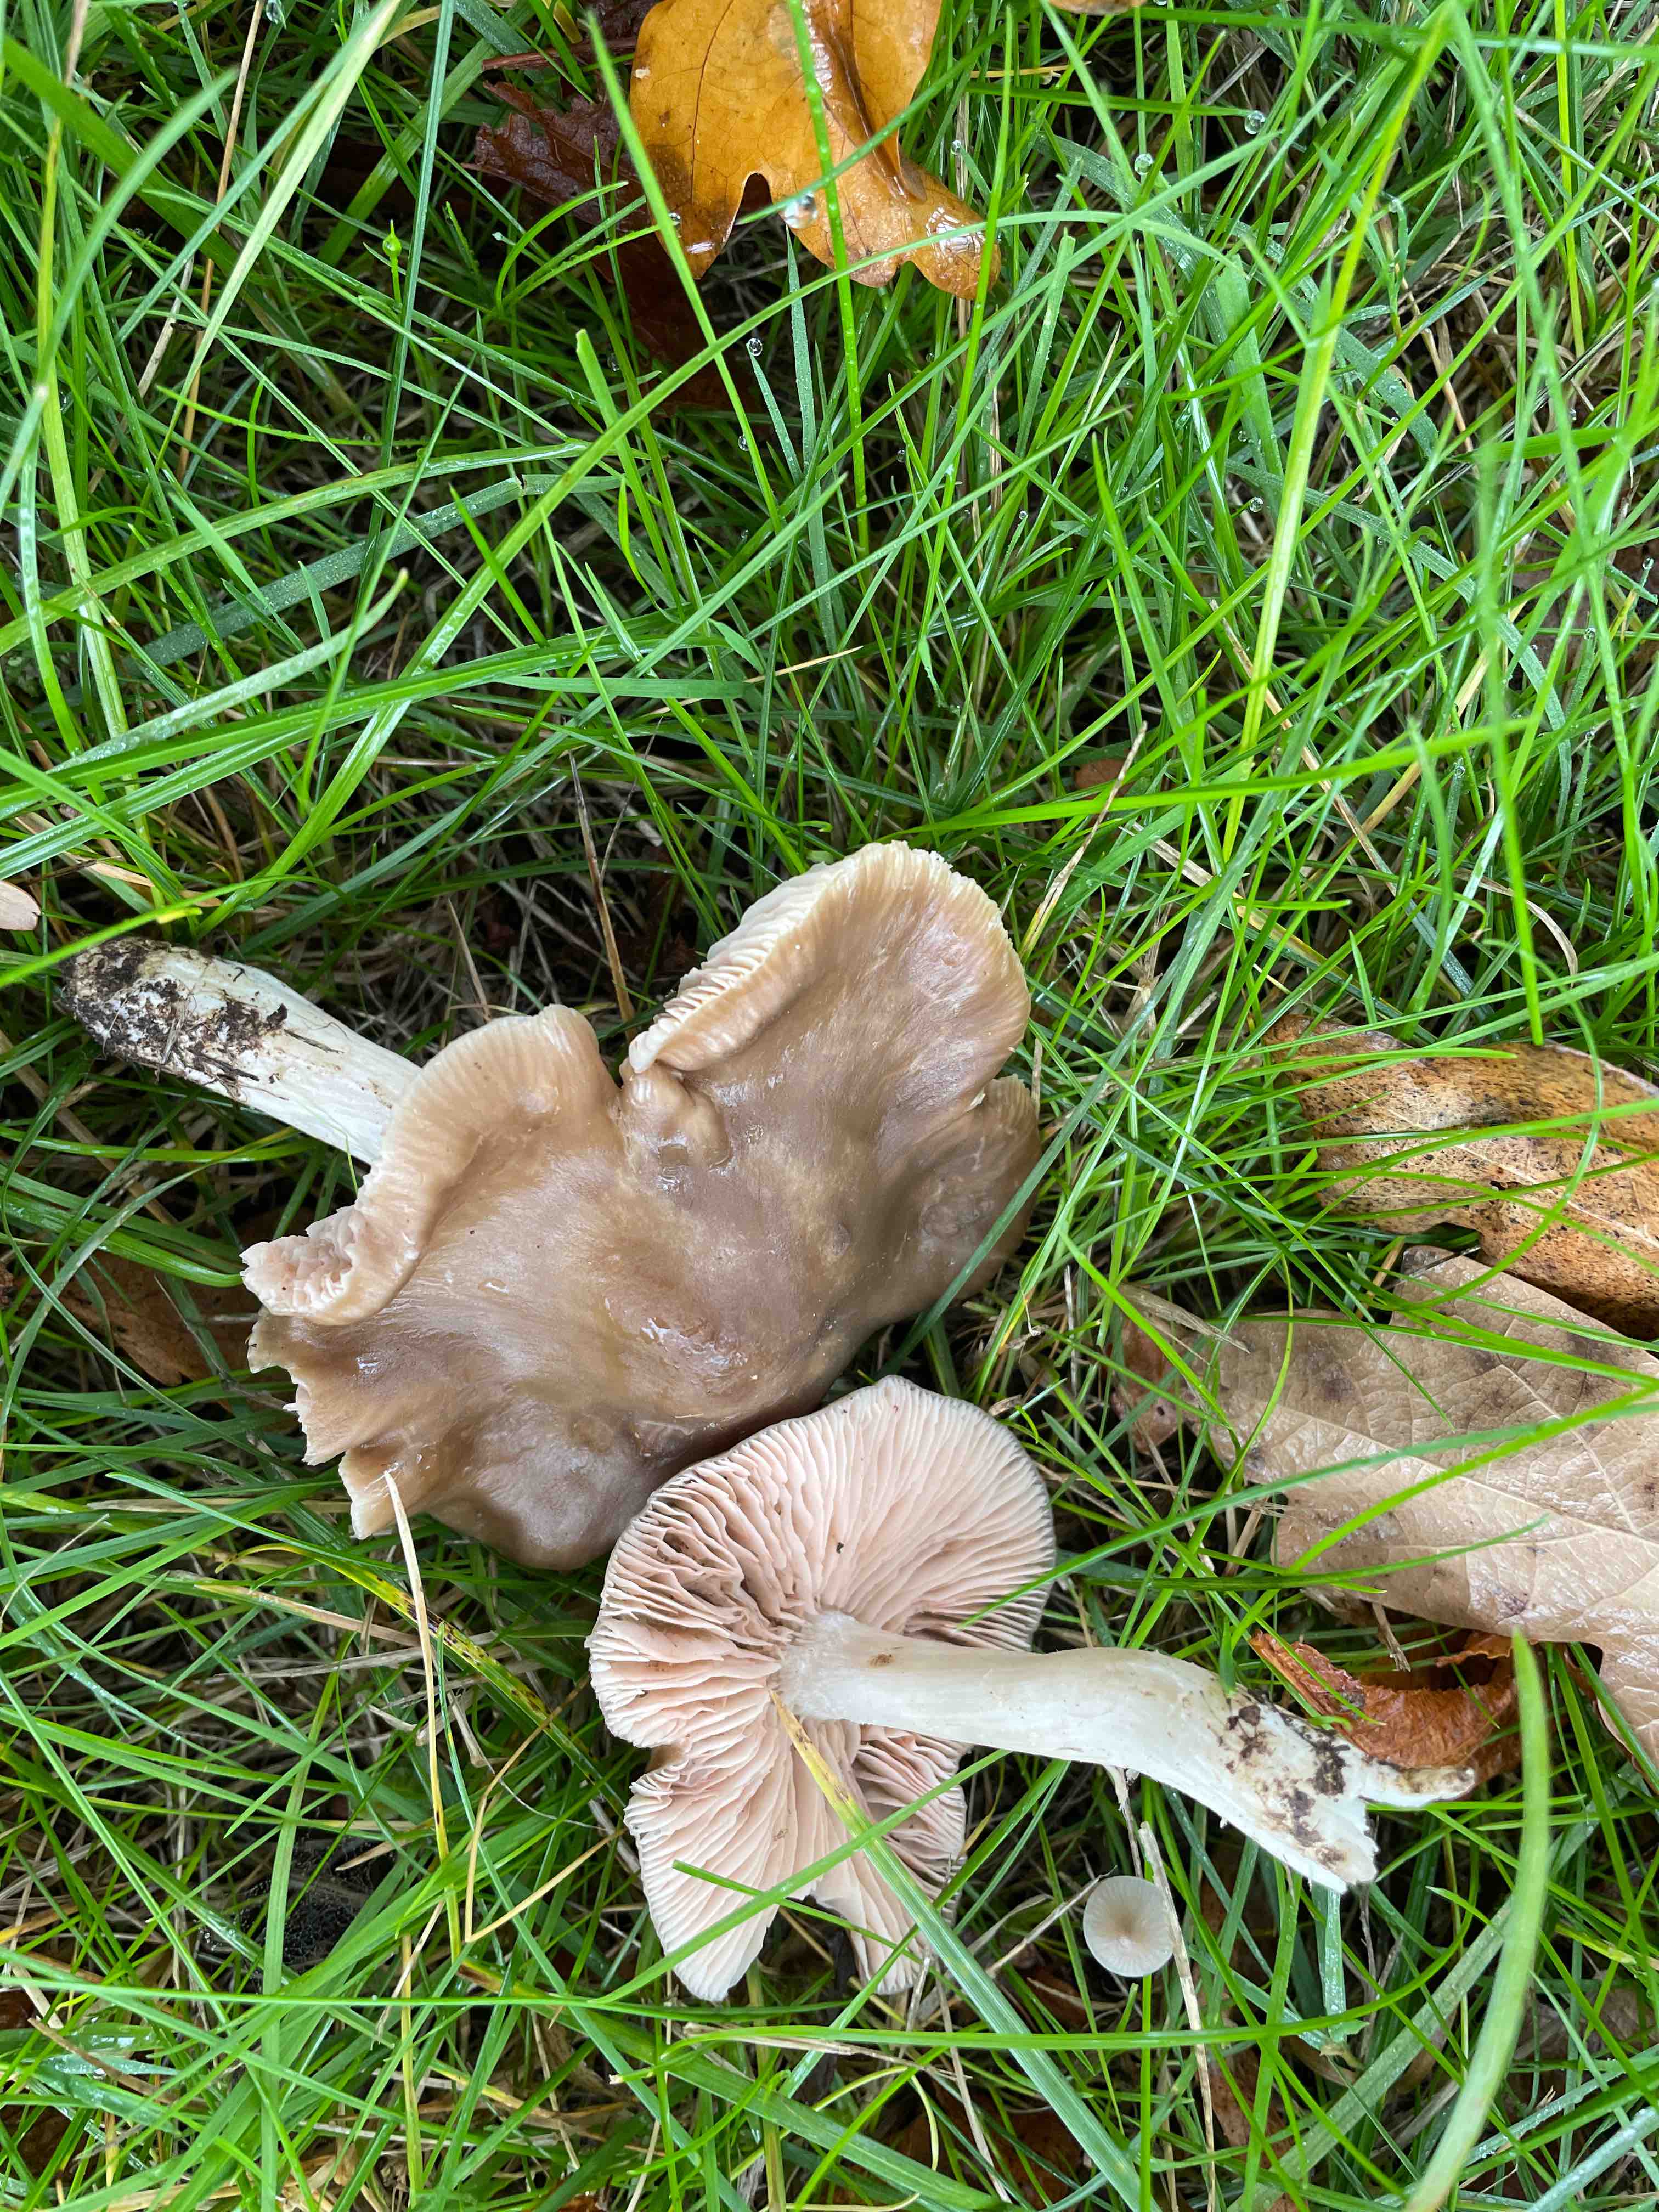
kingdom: Fungi
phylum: Basidiomycota
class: Agaricomycetes
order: Agaricales
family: Entolomataceae
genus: Entoloma
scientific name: Entoloma lividoalbum
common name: lysstokket rødblad
